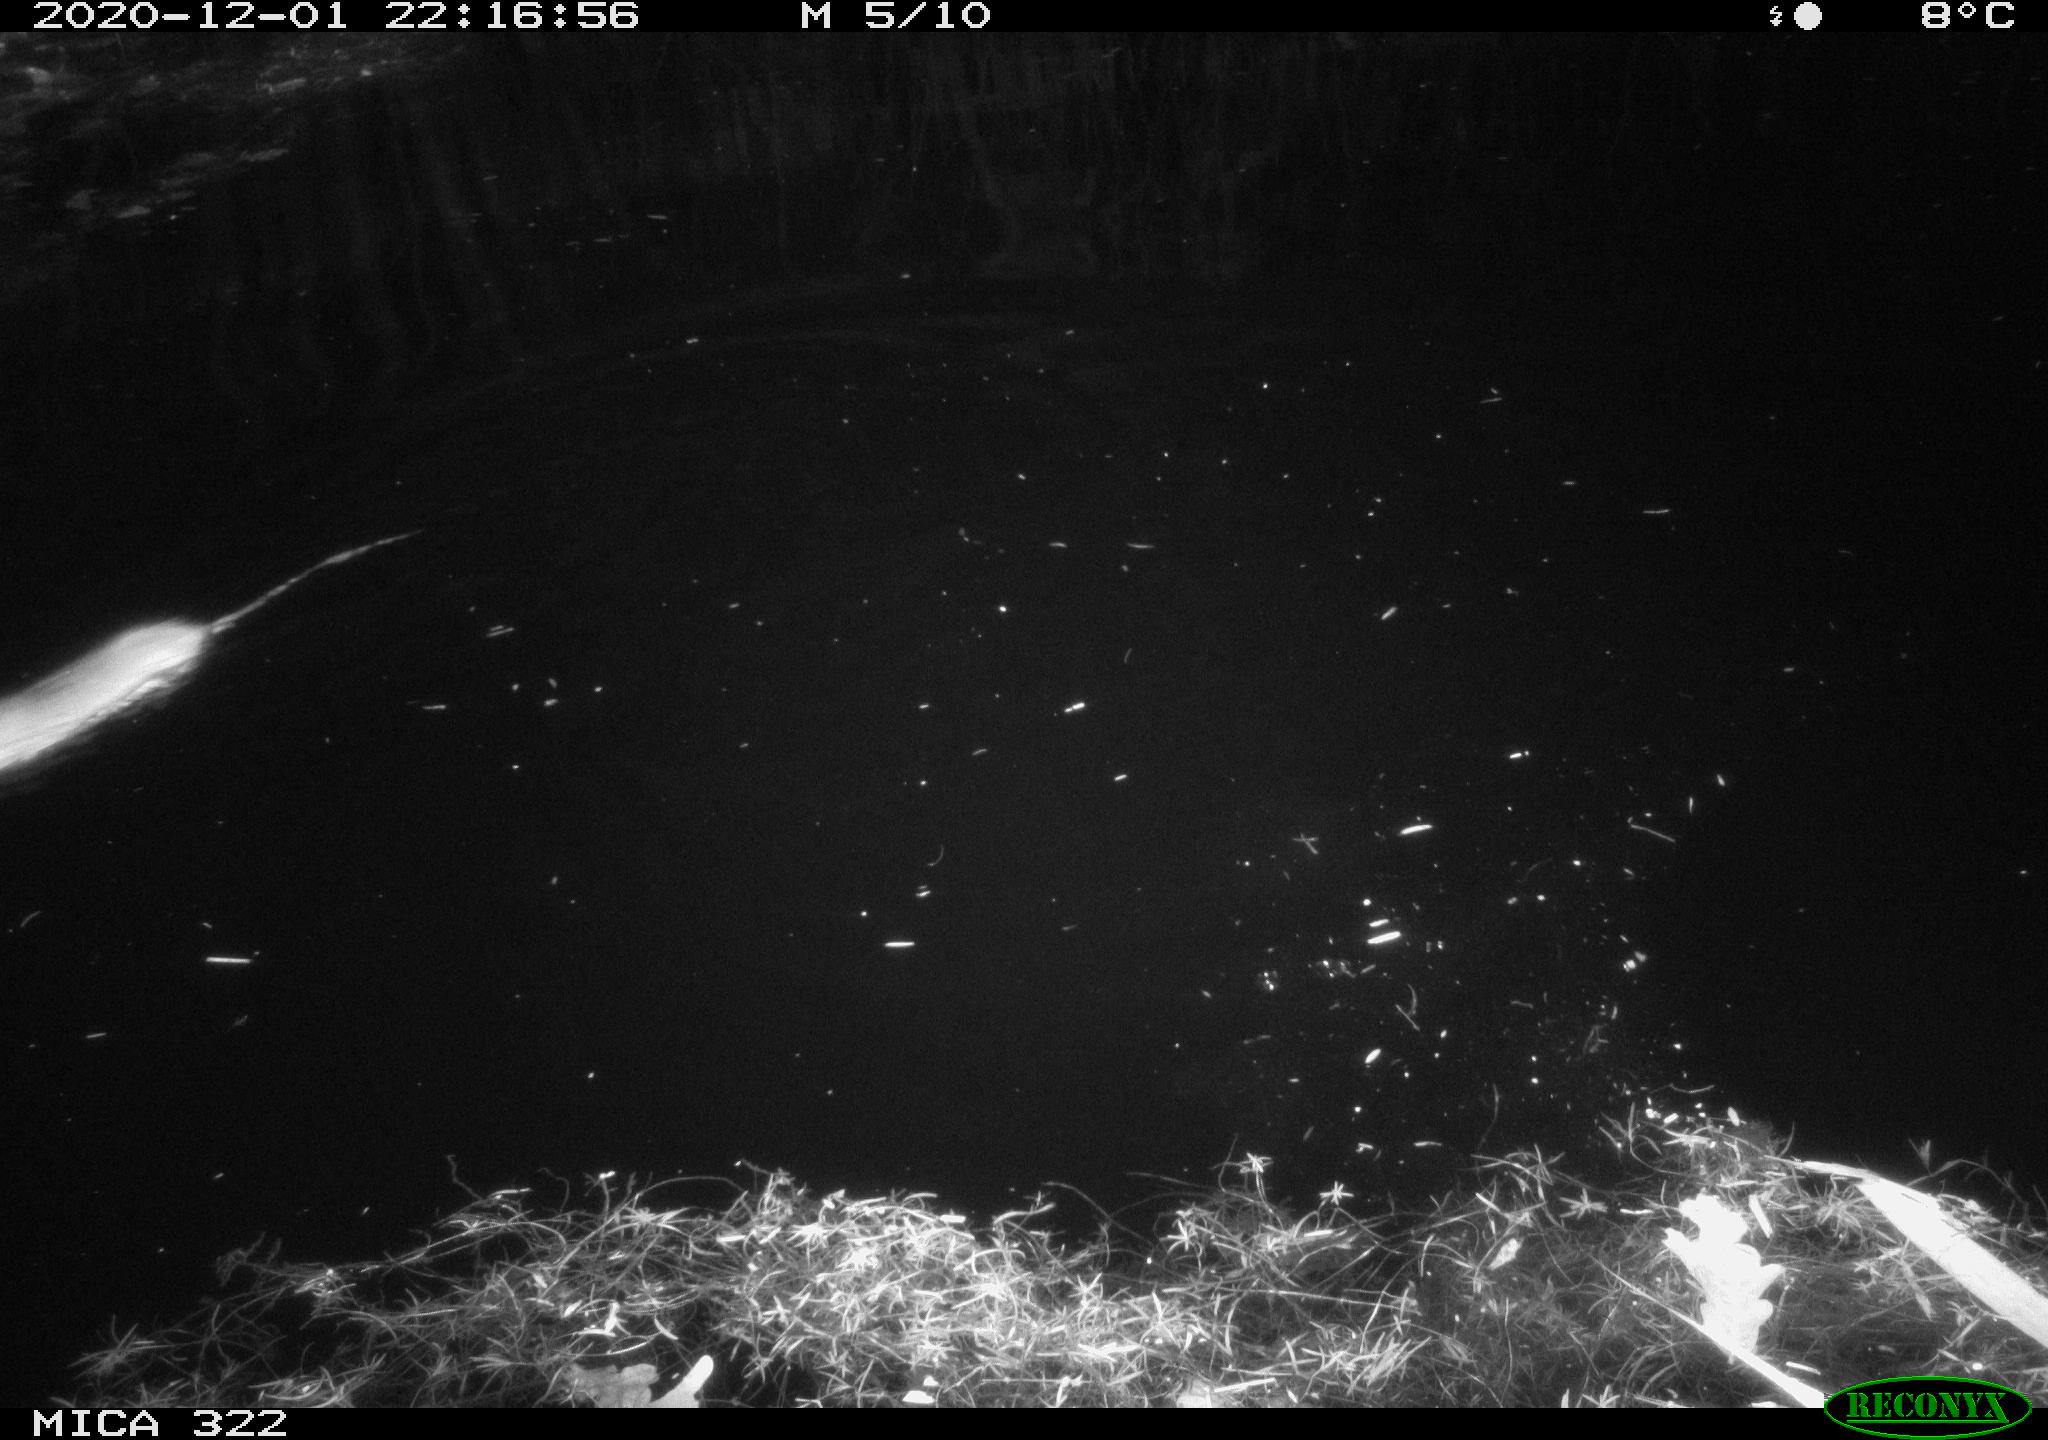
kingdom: Animalia
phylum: Chordata
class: Mammalia
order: Rodentia
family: Muridae
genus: Rattus
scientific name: Rattus norvegicus
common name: Brown rat
